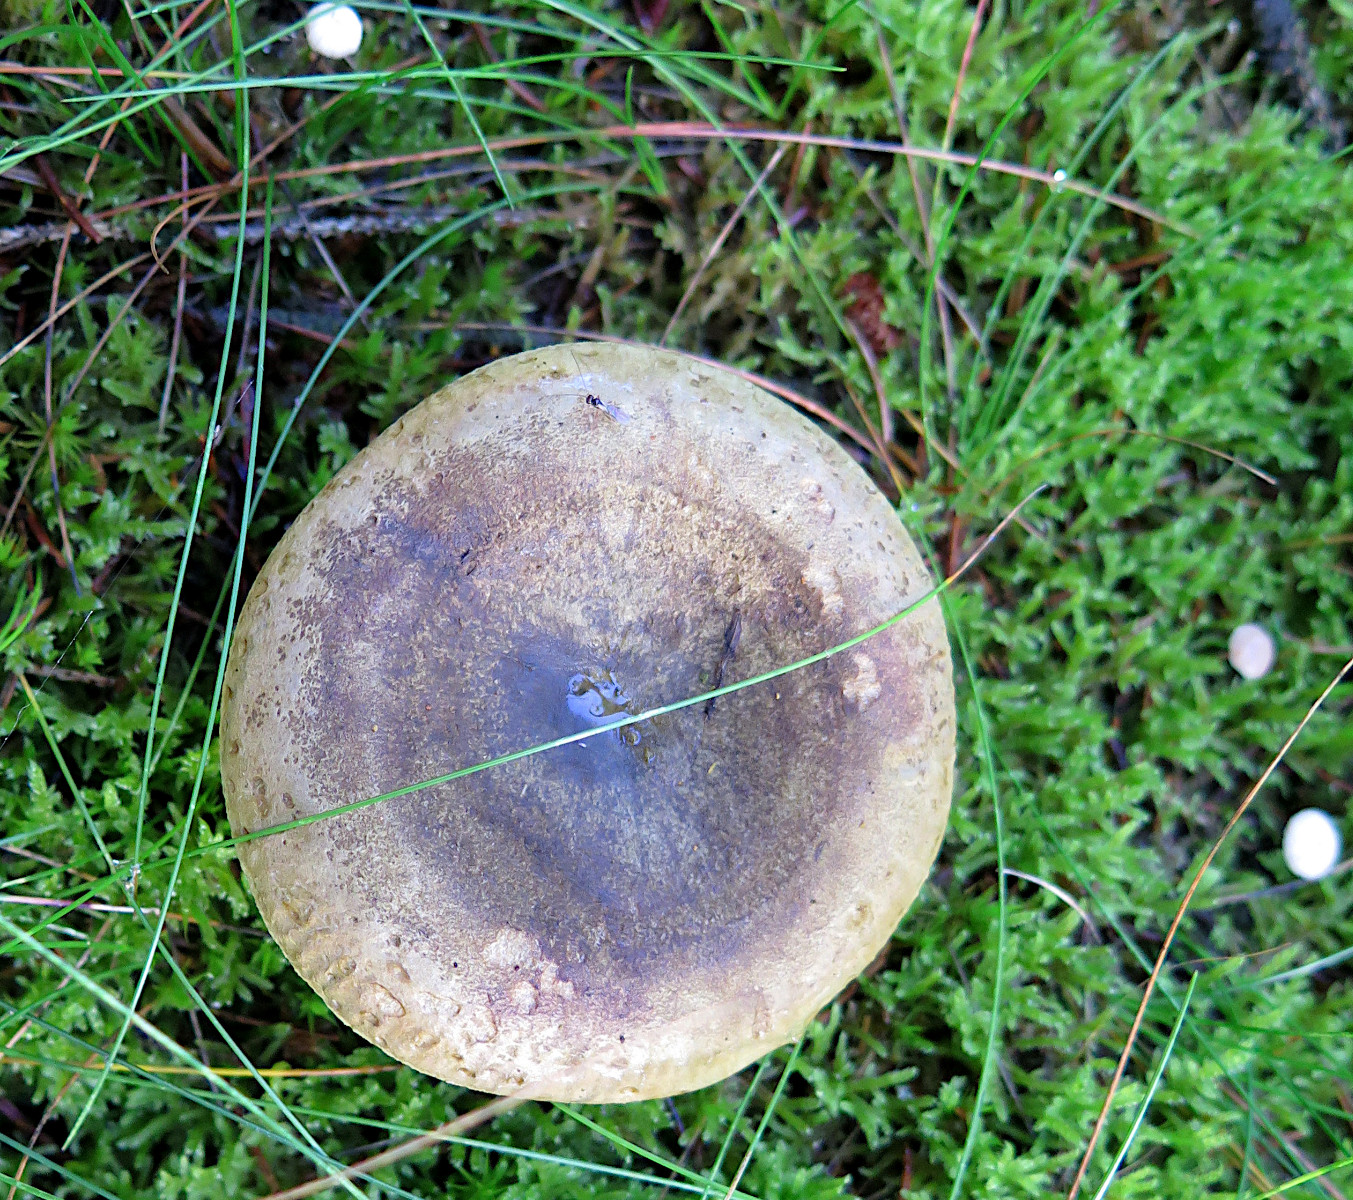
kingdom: Fungi
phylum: Basidiomycota
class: Agaricomycetes
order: Russulales
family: Russulaceae
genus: Lactarius
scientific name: Lactarius necator
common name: manddraber-mælkehat
